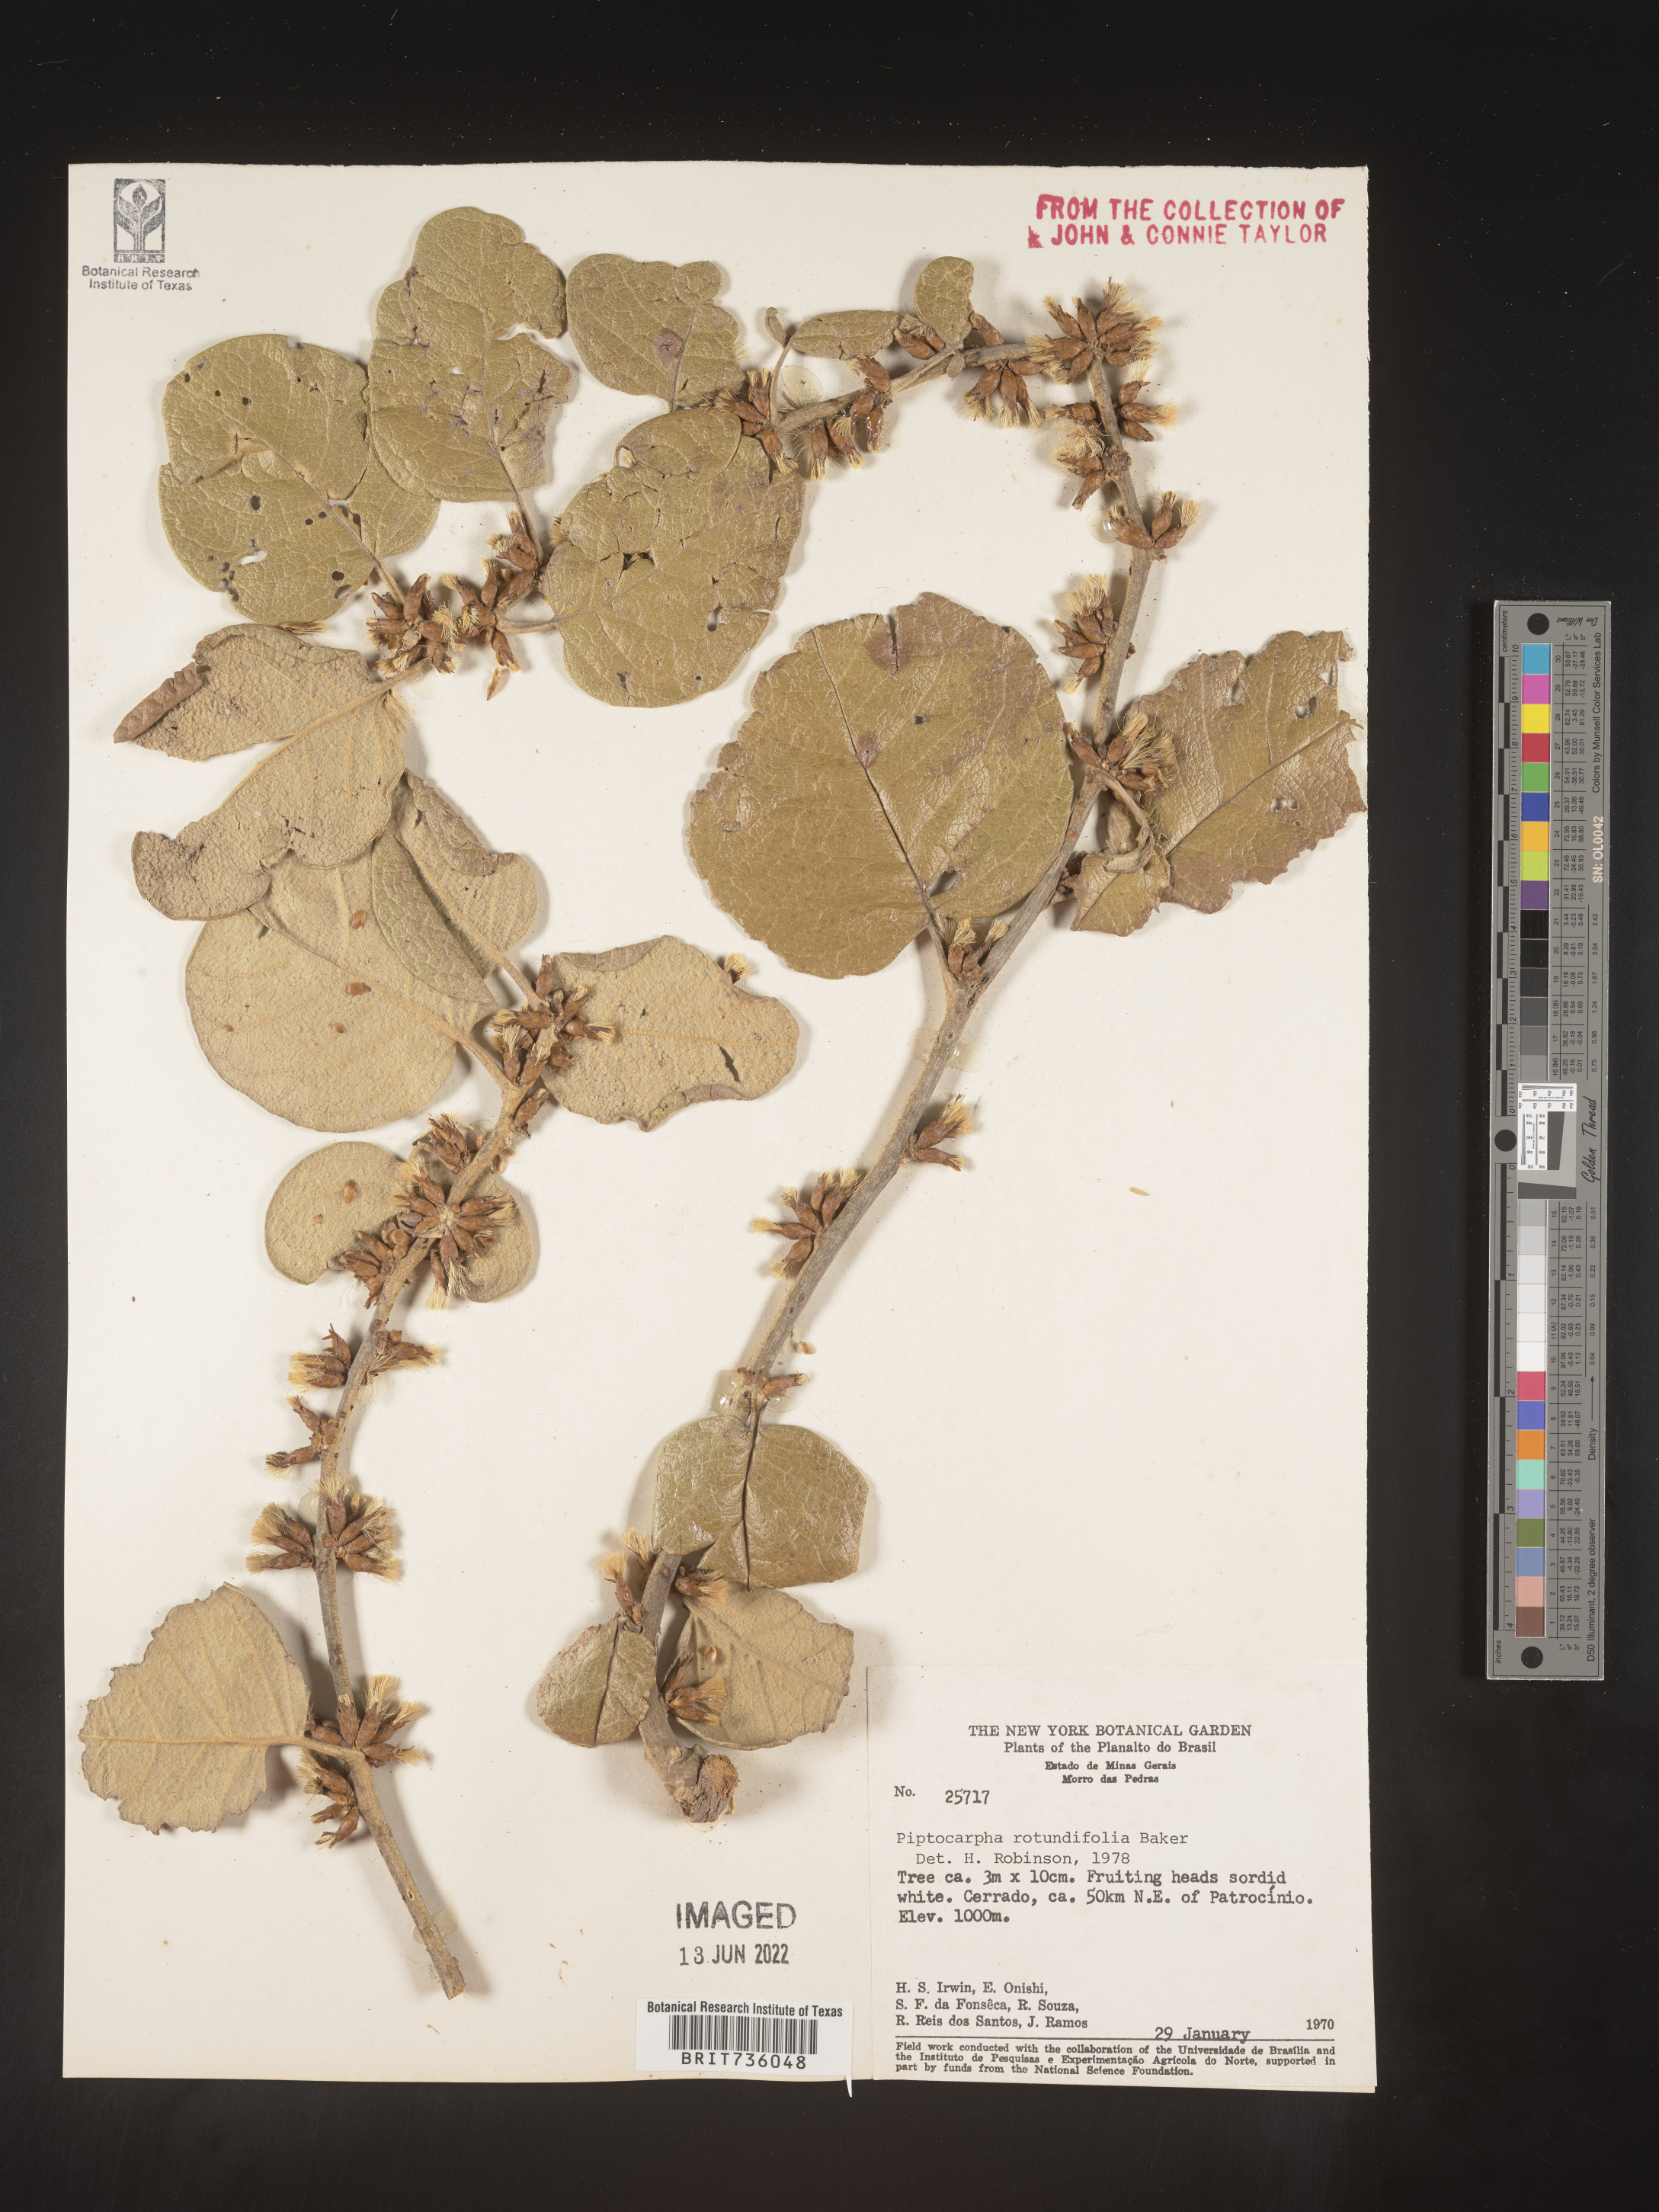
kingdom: Plantae
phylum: Tracheophyta
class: Magnoliopsida
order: Asterales
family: Asteraceae
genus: Piptocarpha
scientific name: Piptocarpha
